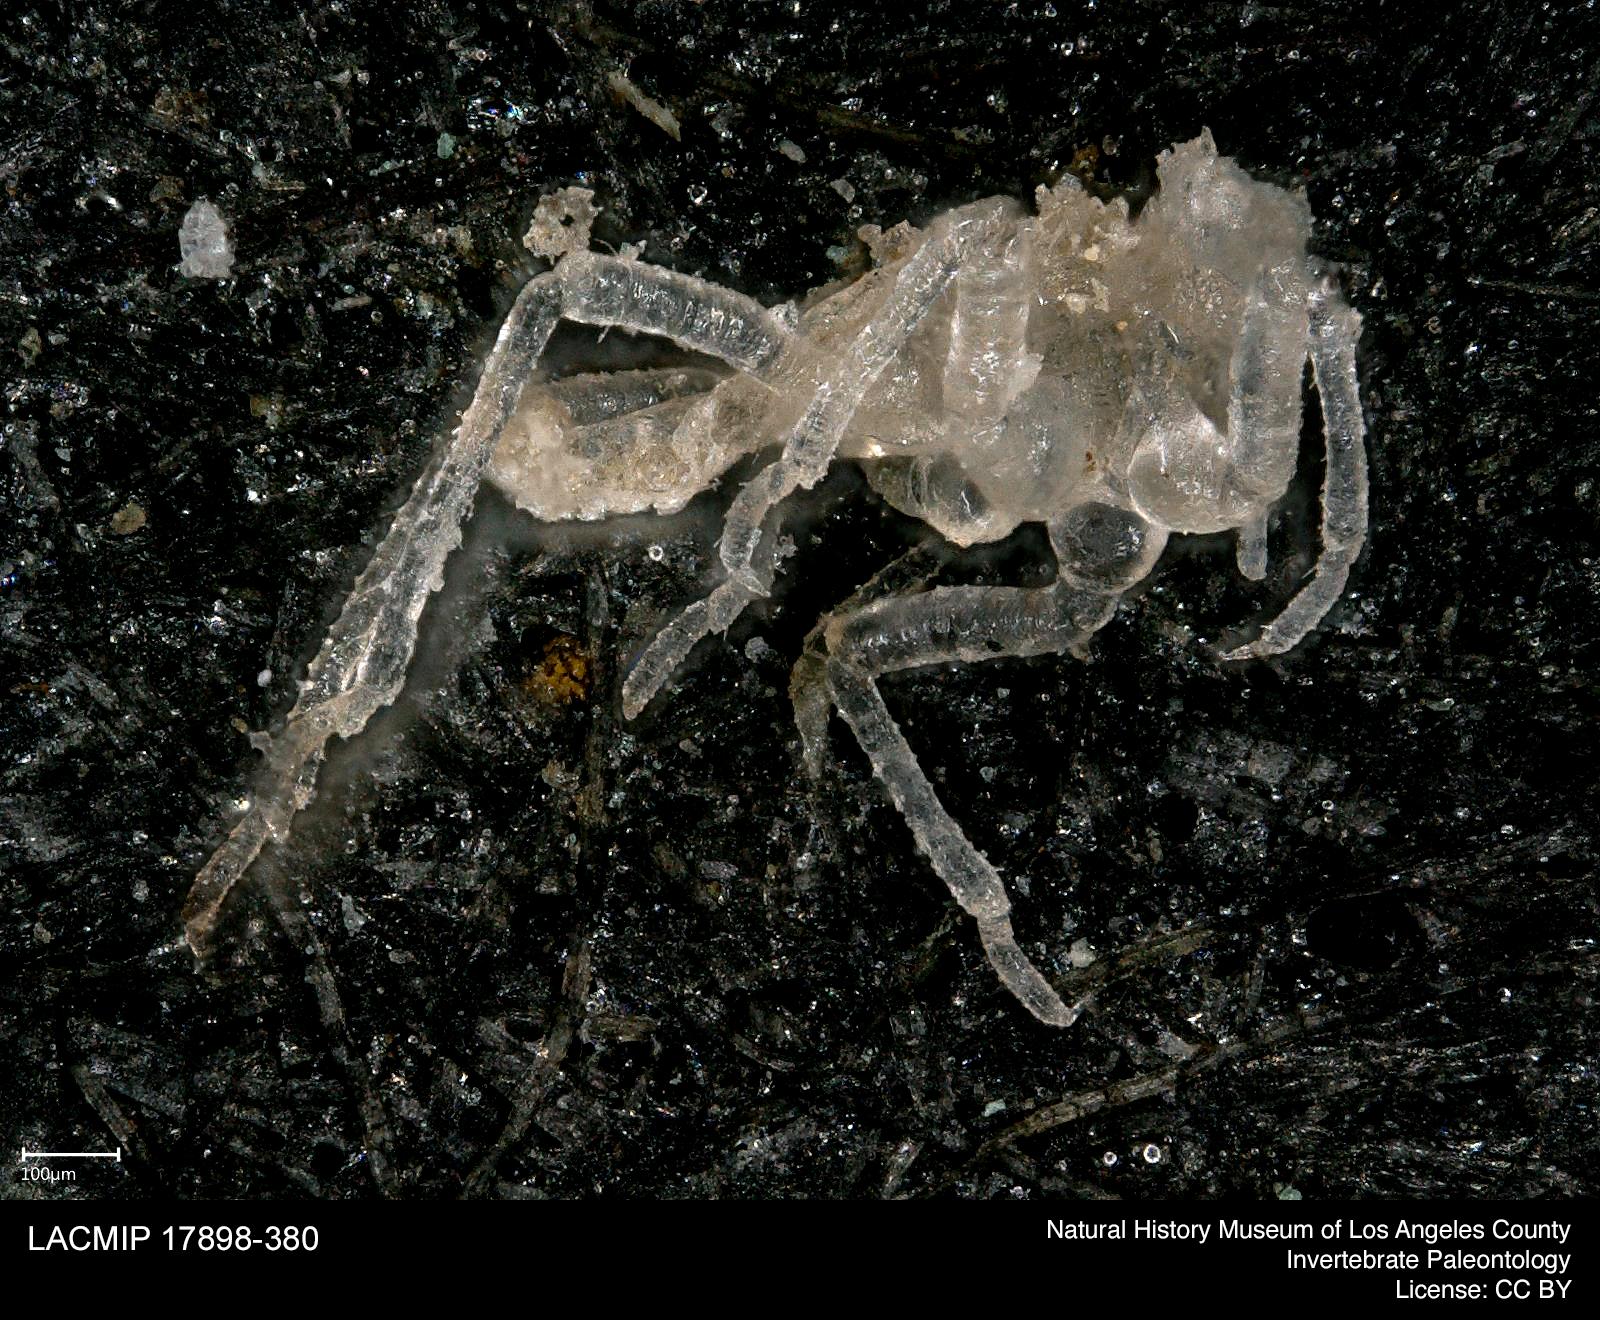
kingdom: Animalia
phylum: Arthropoda
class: Insecta
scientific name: Insecta
